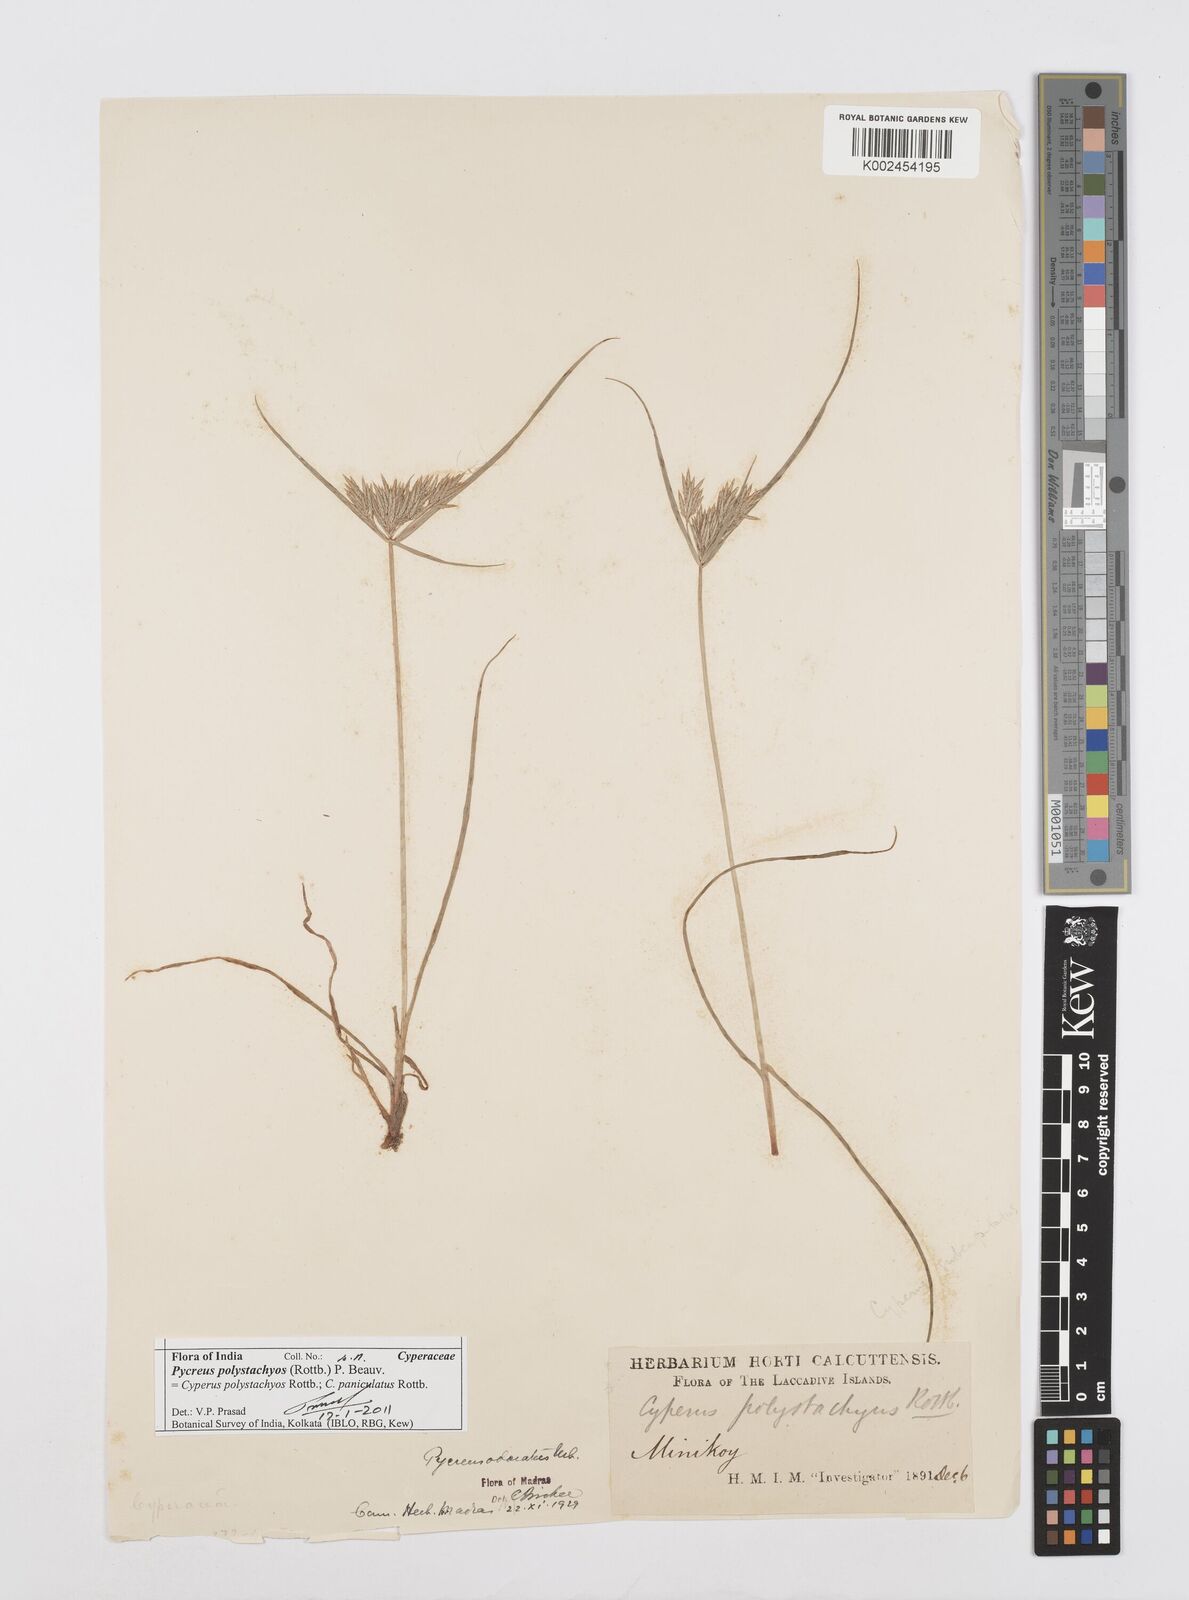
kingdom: Plantae
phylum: Tracheophyta
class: Liliopsida
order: Poales
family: Cyperaceae
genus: Cyperus
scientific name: Cyperus polystachyos
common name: Bunchy flat sedge
